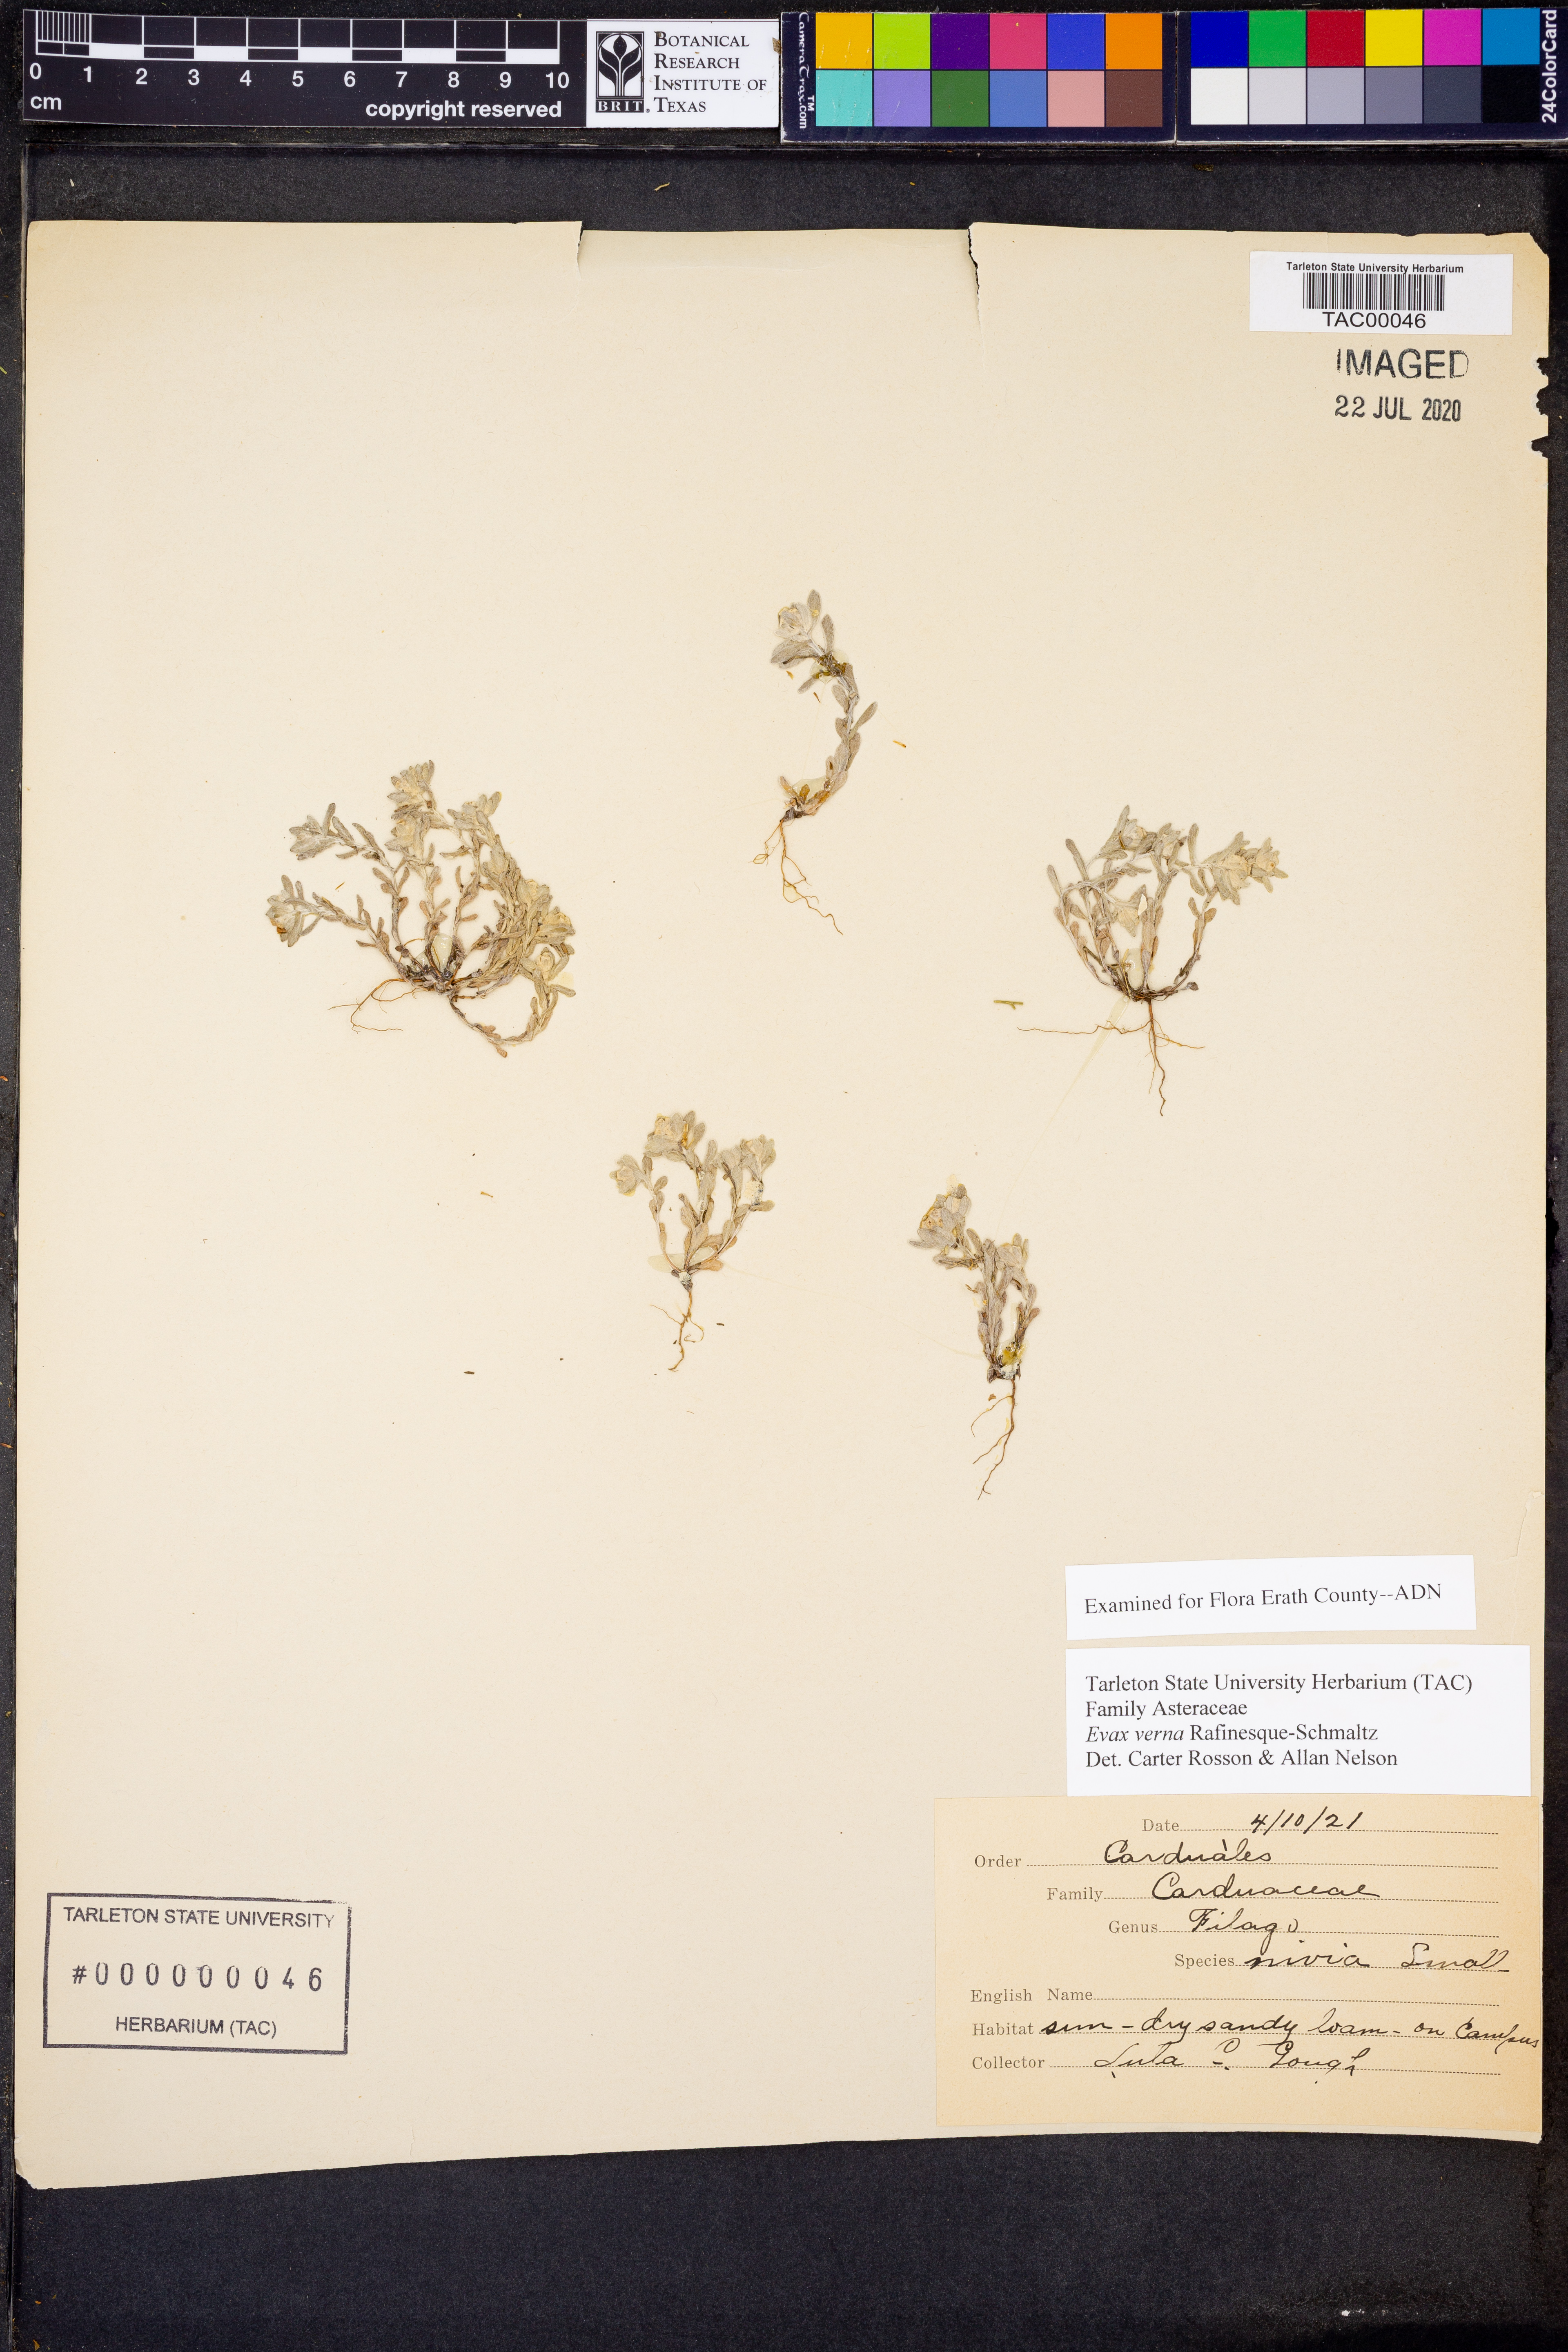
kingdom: Plantae
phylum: Tracheophyta
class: Magnoliopsida
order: Asterales
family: Asteraceae
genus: Diaperia
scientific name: Diaperia verna
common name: Many-stem rabbit-tobacco
